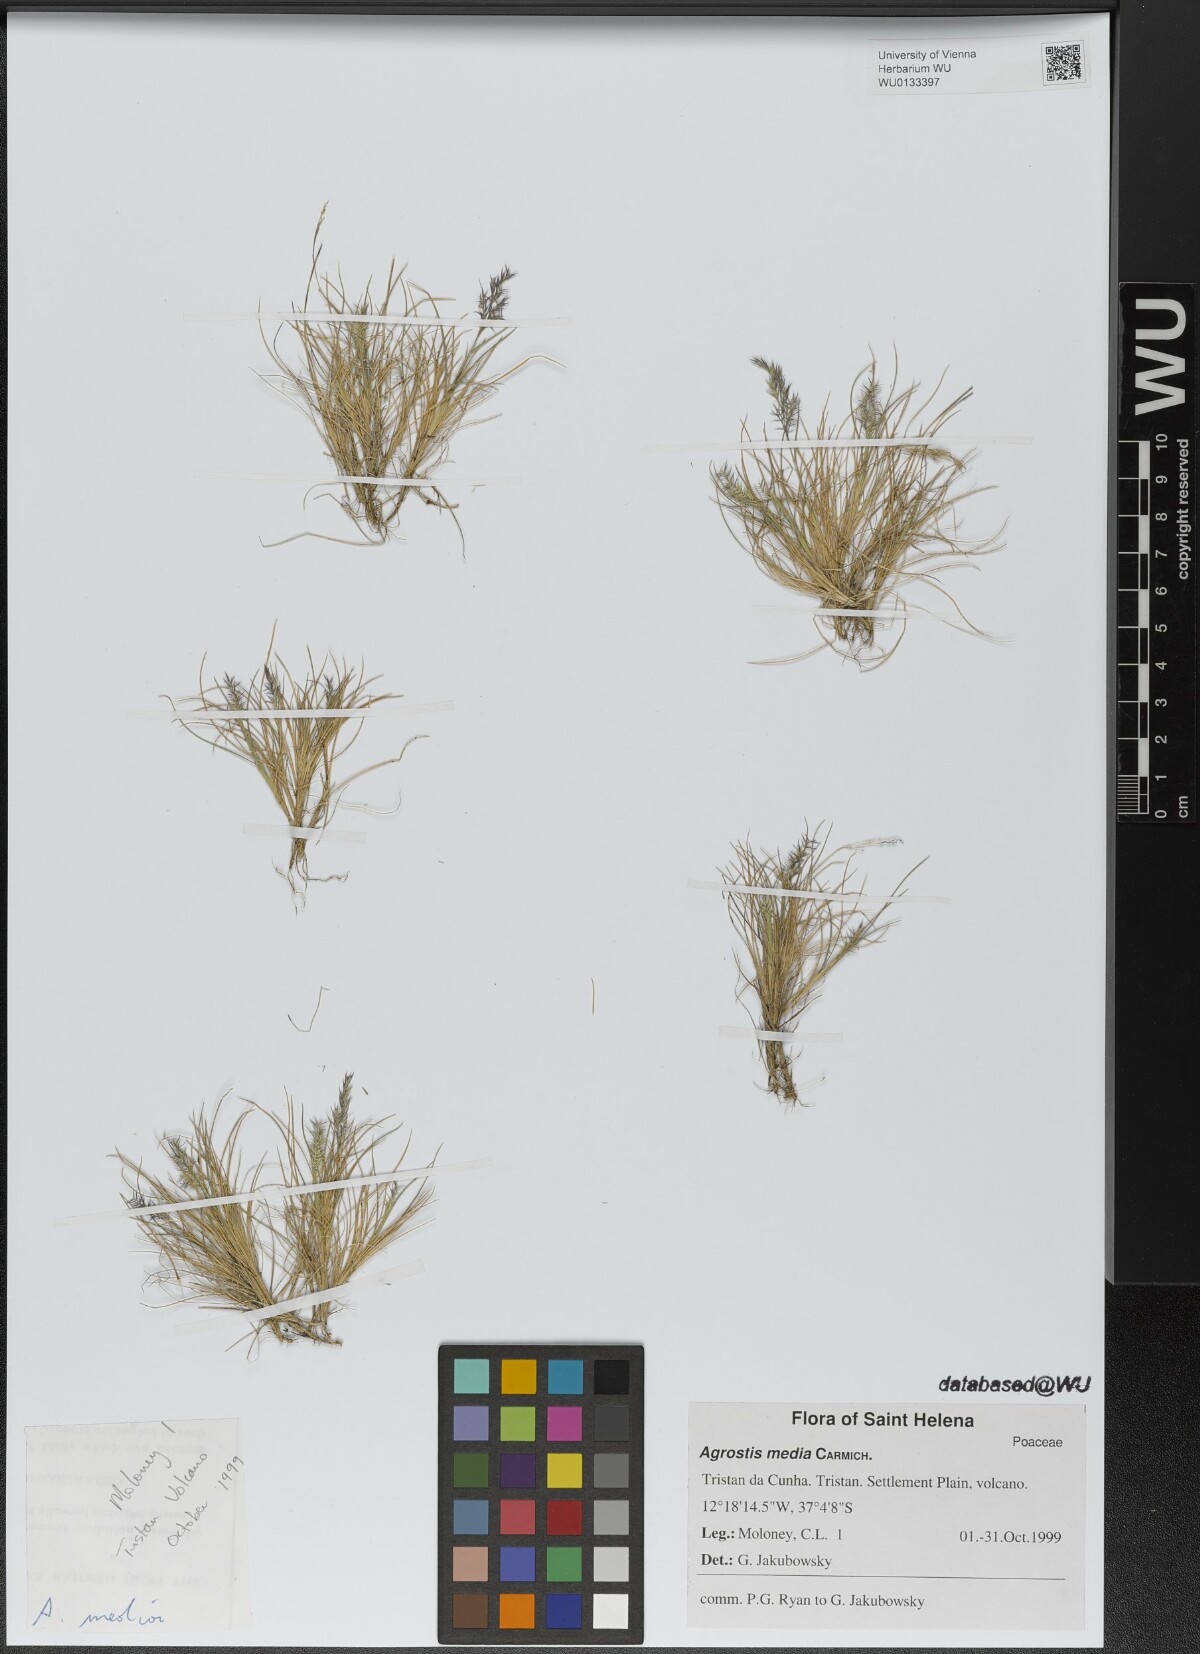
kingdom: Plantae
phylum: Tracheophyta
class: Liliopsida
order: Poales
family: Poaceae
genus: Agrostis
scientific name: Agrostis media
